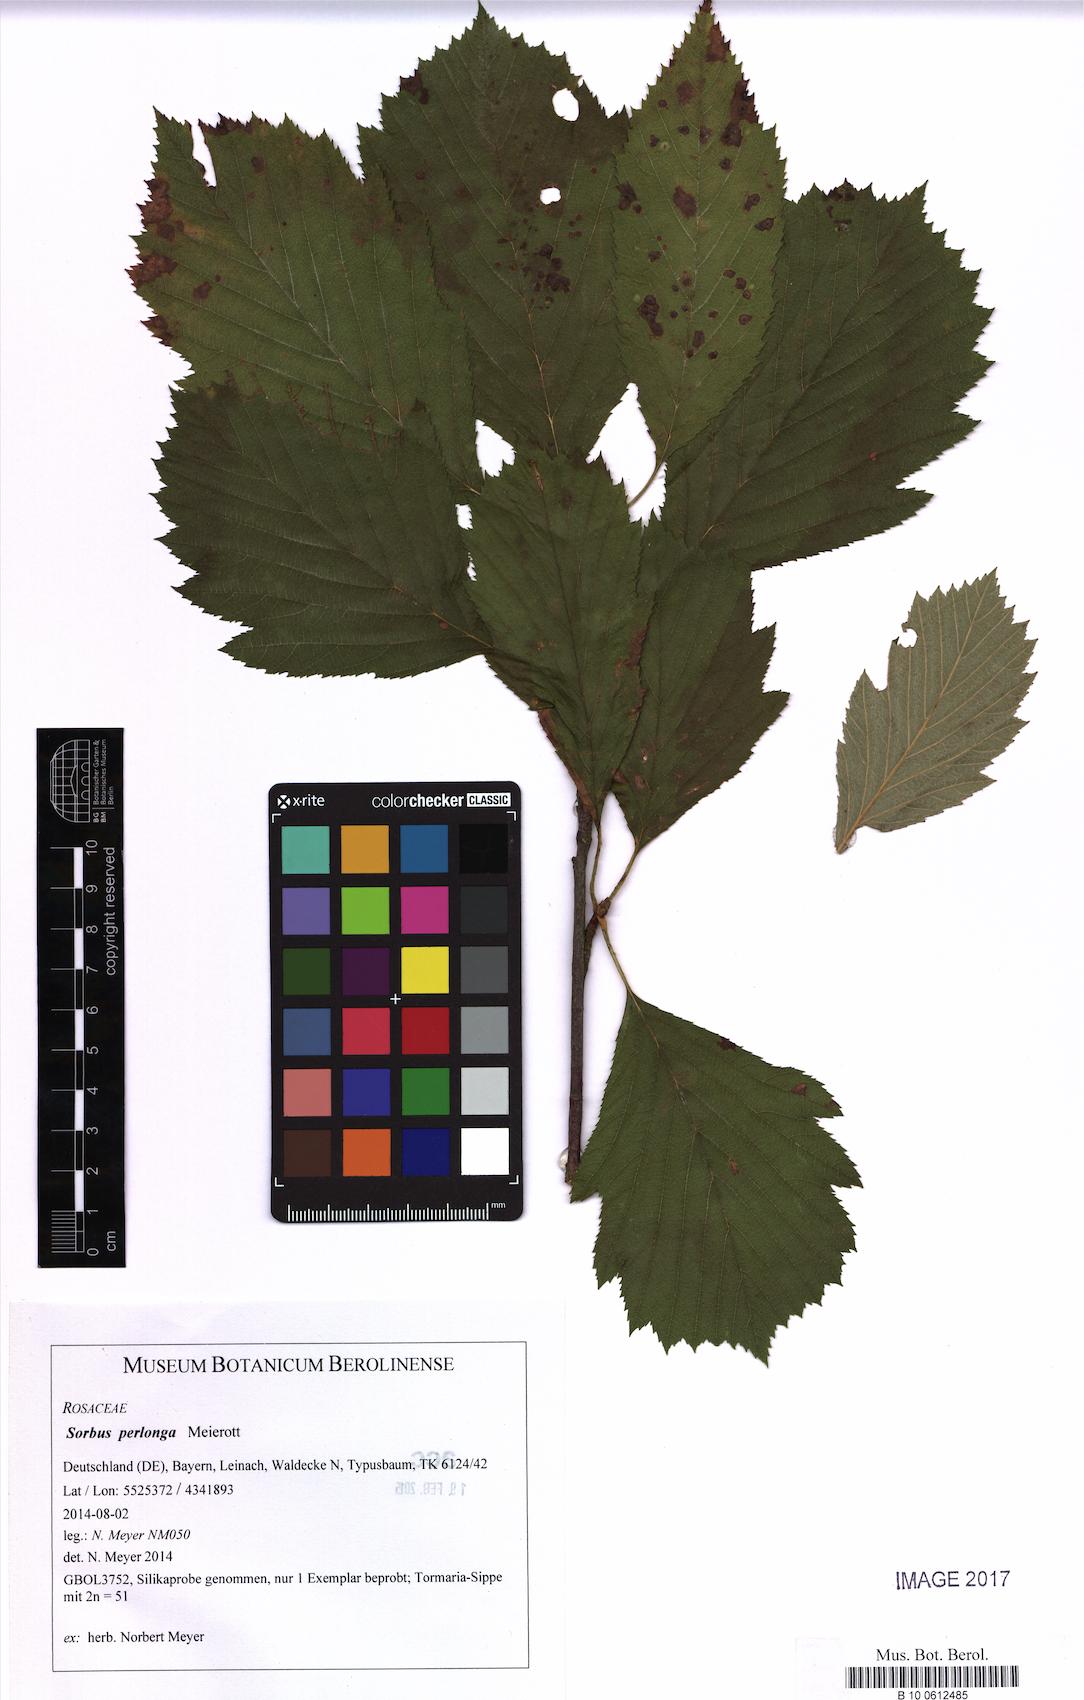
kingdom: Plantae
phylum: Tracheophyta
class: Magnoliopsida
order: Rosales
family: Rosaceae
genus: Karpatiosorbus
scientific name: Karpatiosorbus perlonga
